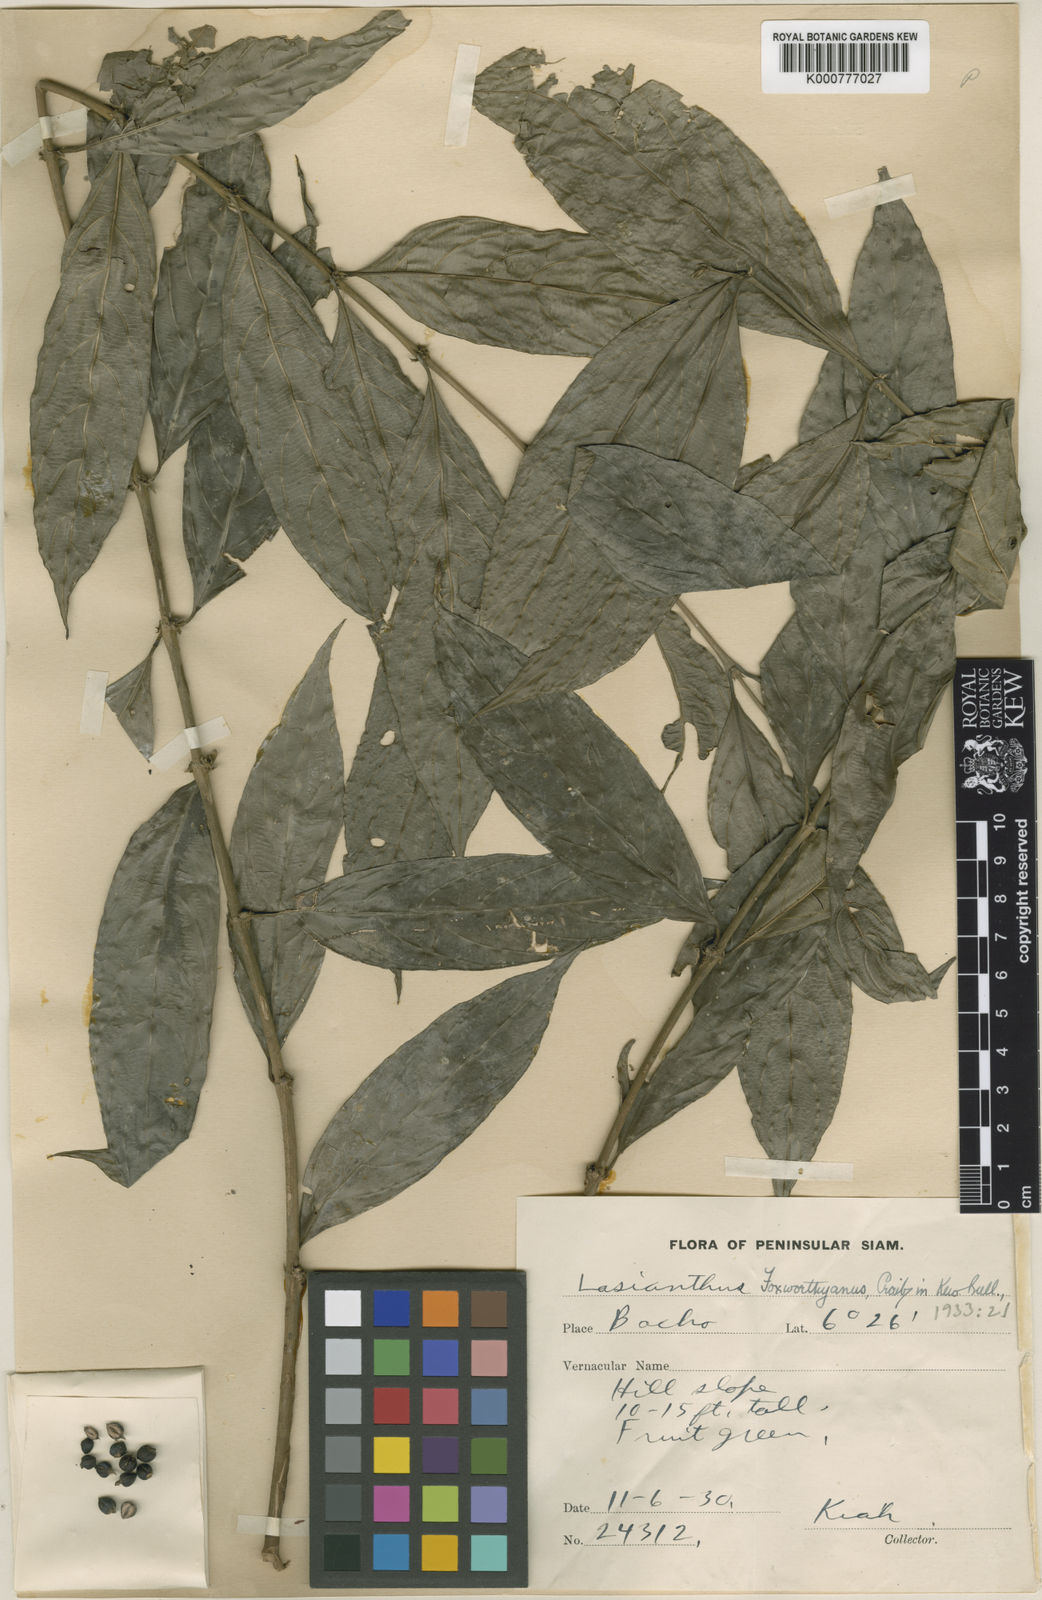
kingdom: Plantae
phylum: Tracheophyta
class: Magnoliopsida
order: Gentianales
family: Rubiaceae
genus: Lasianthus
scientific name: Lasianthus foxworthyanus
